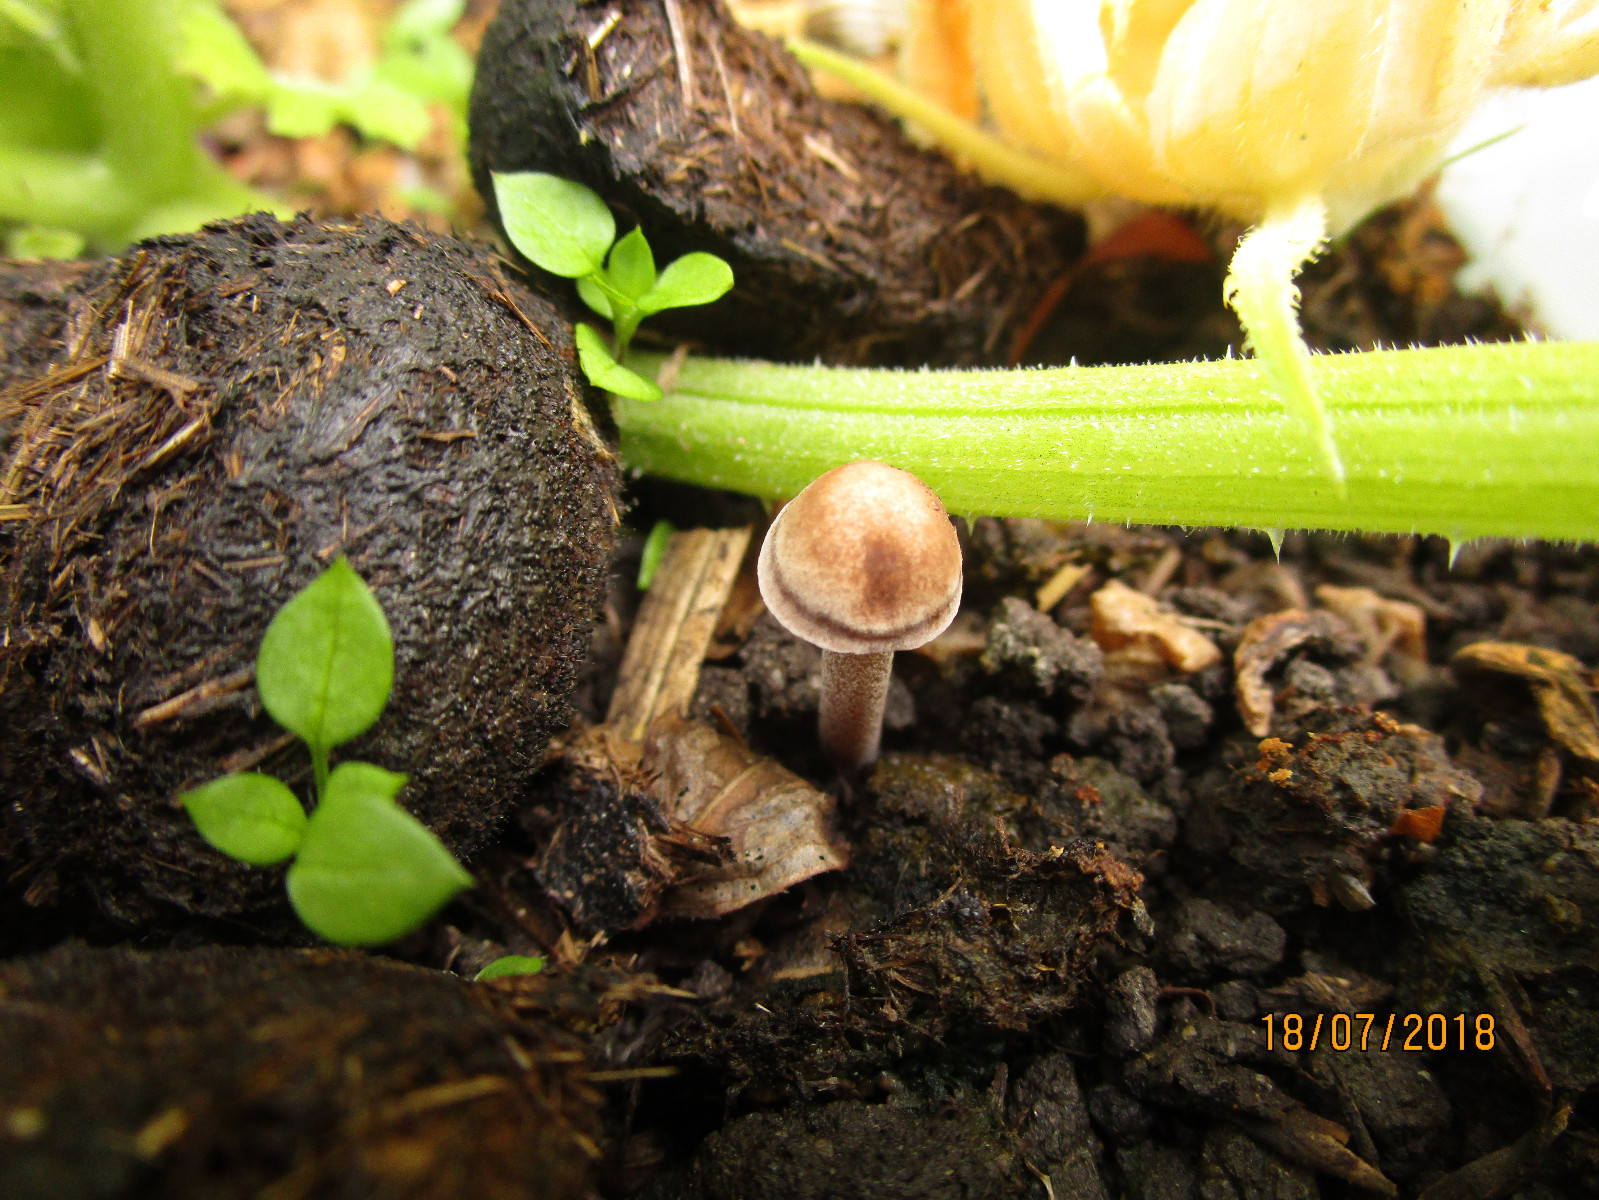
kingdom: Fungi
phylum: Basidiomycota
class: Agaricomycetes
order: Agaricales
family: Bolbitiaceae
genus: Panaeolus
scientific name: Panaeolus cinctulus
